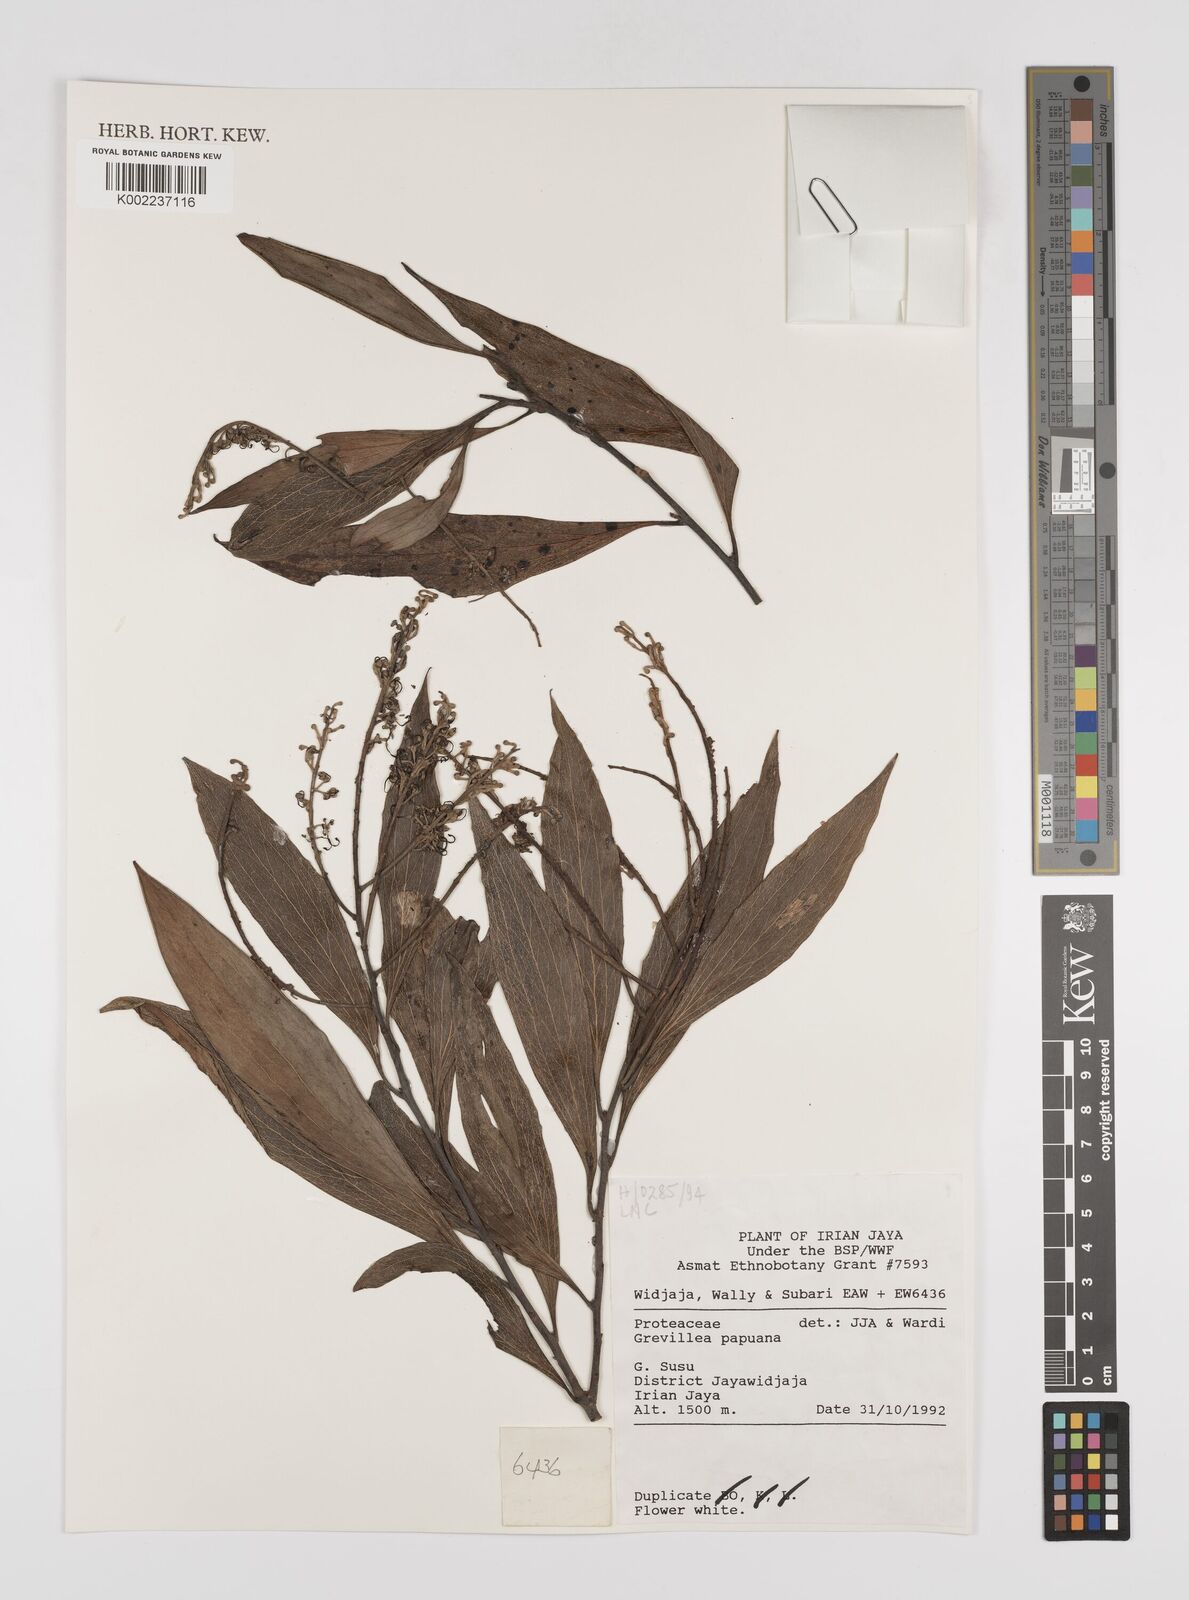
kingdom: Plantae
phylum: Tracheophyta
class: Magnoliopsida
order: Proteales
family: Proteaceae
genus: Grevillea
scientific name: Grevillea papuana
